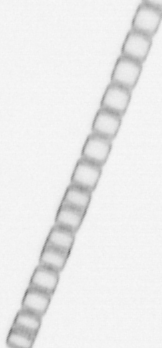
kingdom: Chromista
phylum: Ochrophyta
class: Bacillariophyceae
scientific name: Bacillariophyceae
